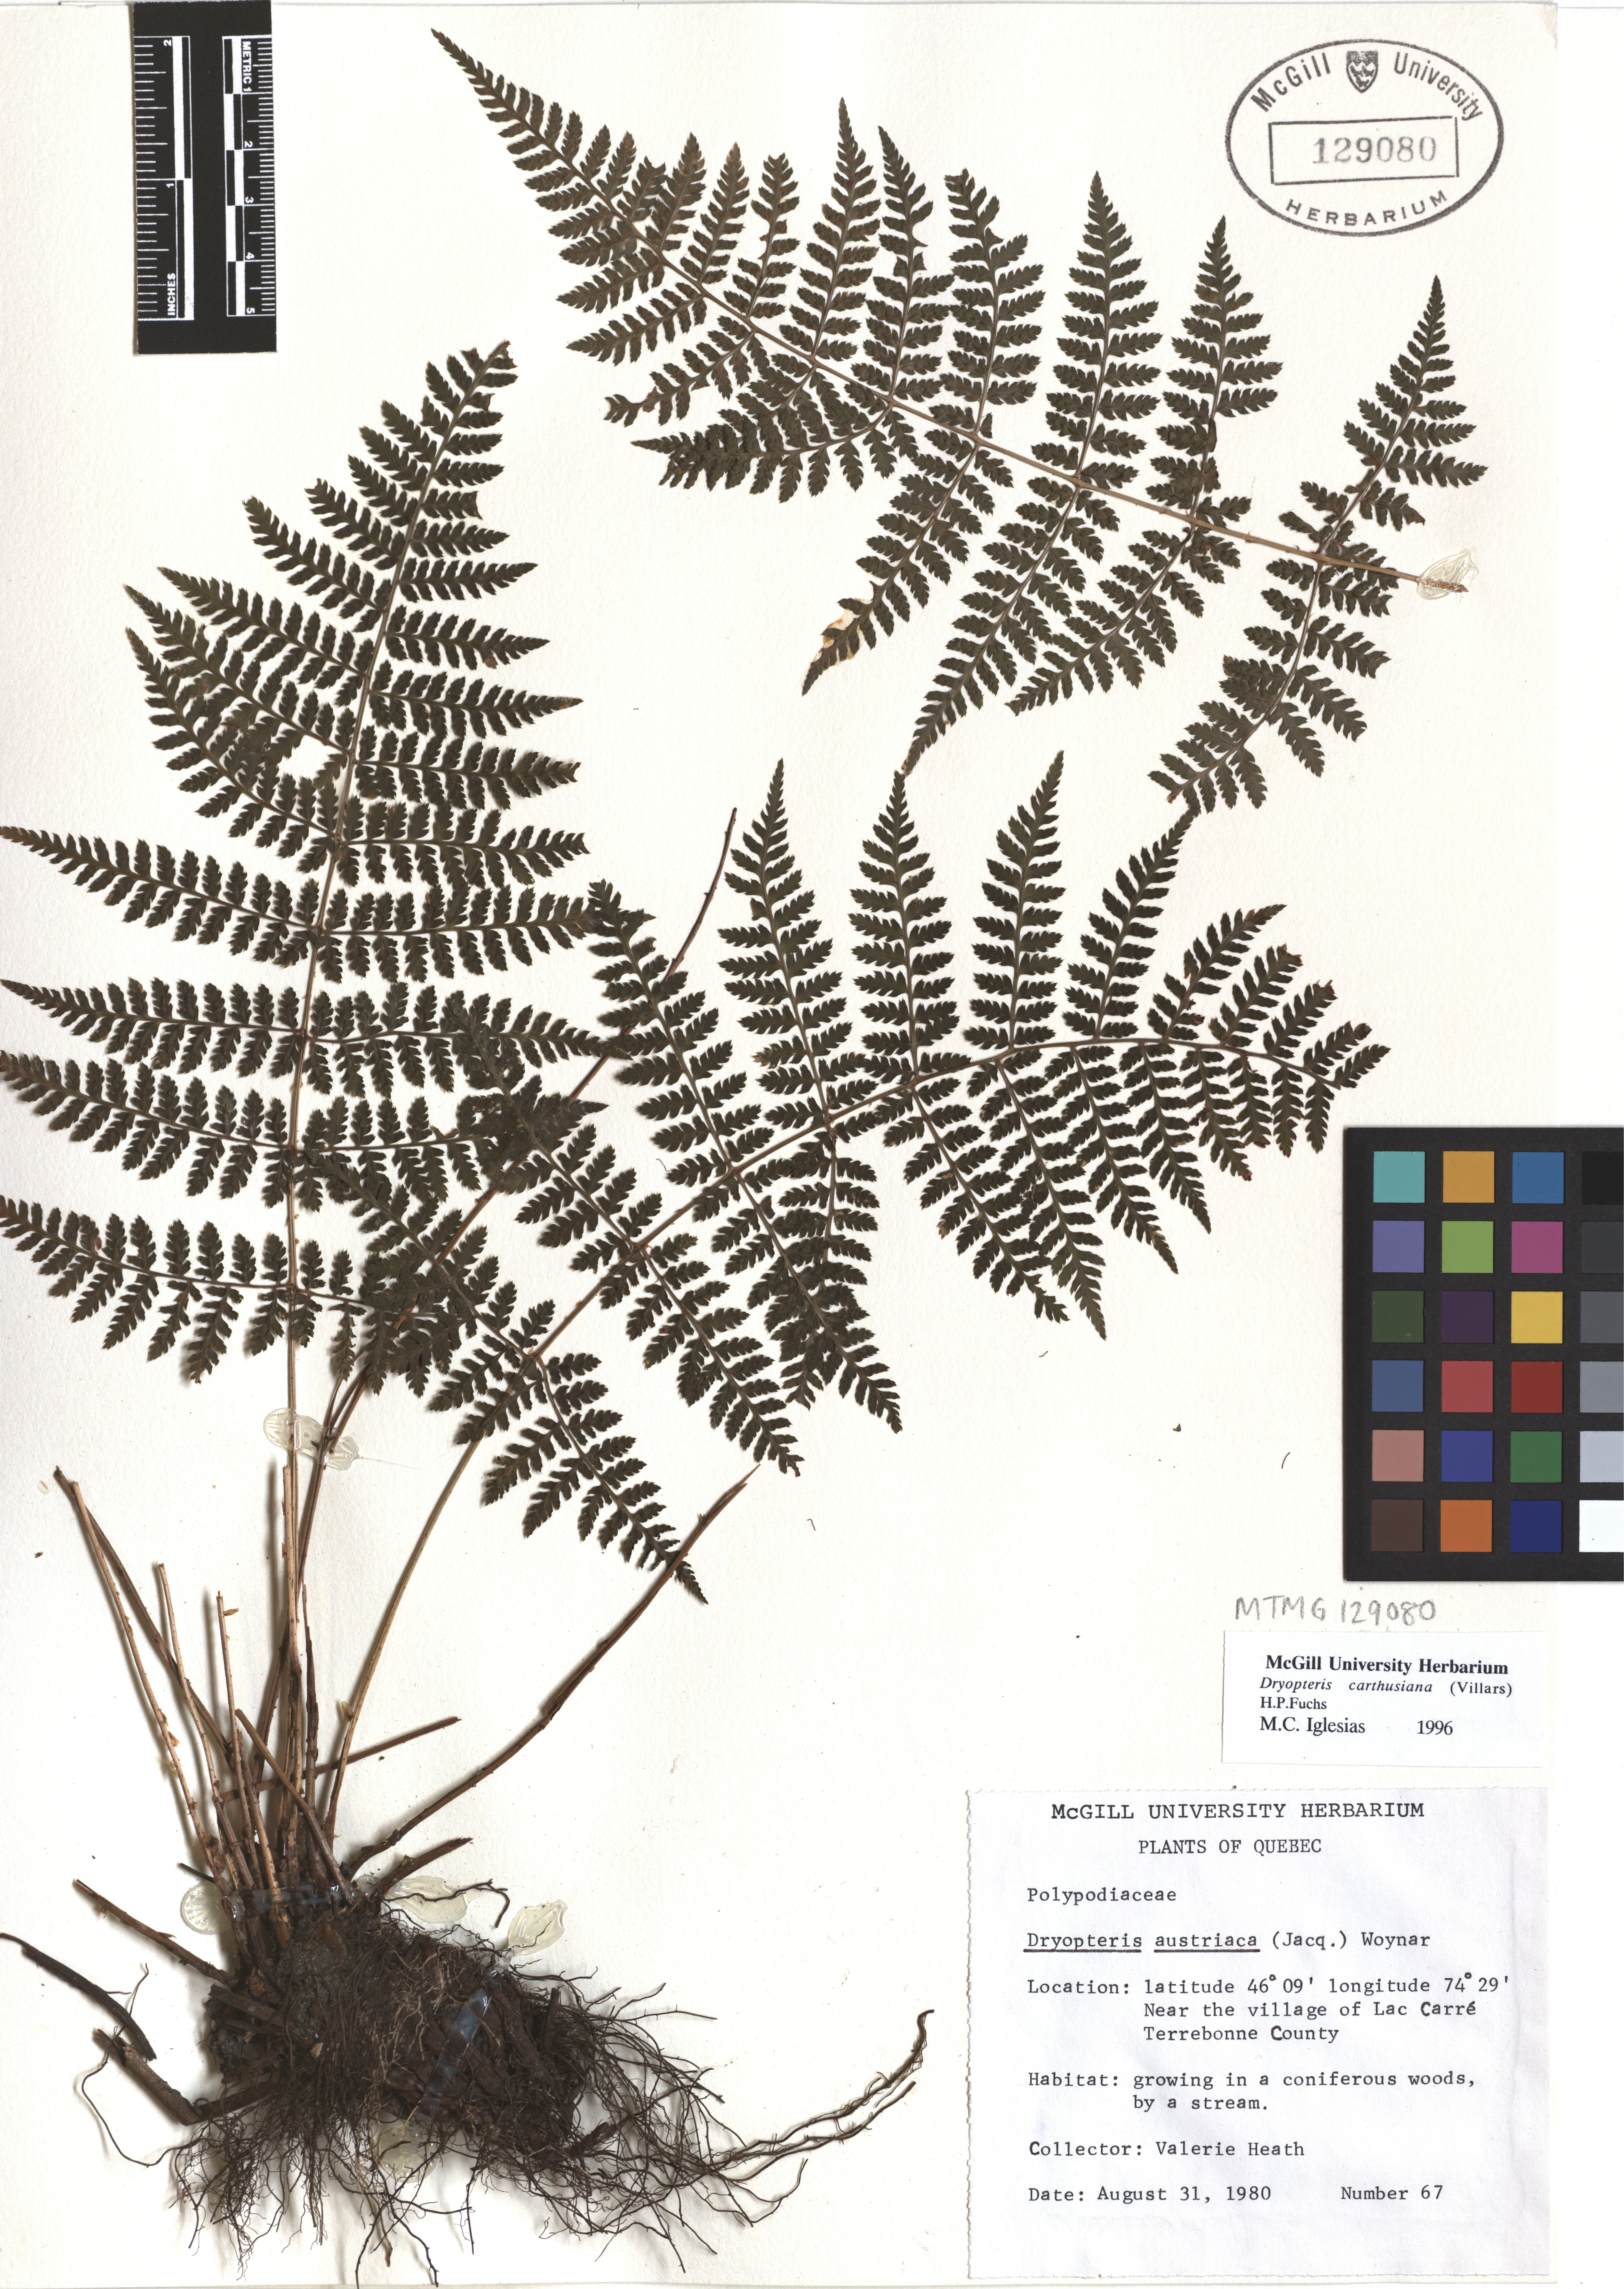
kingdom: Plantae
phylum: Tracheophyta
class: Polypodiopsida
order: Polypodiales
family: Dryopteridaceae
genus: Dryopteris
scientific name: Dryopteris carthusiana
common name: Narrow buckler-fern
